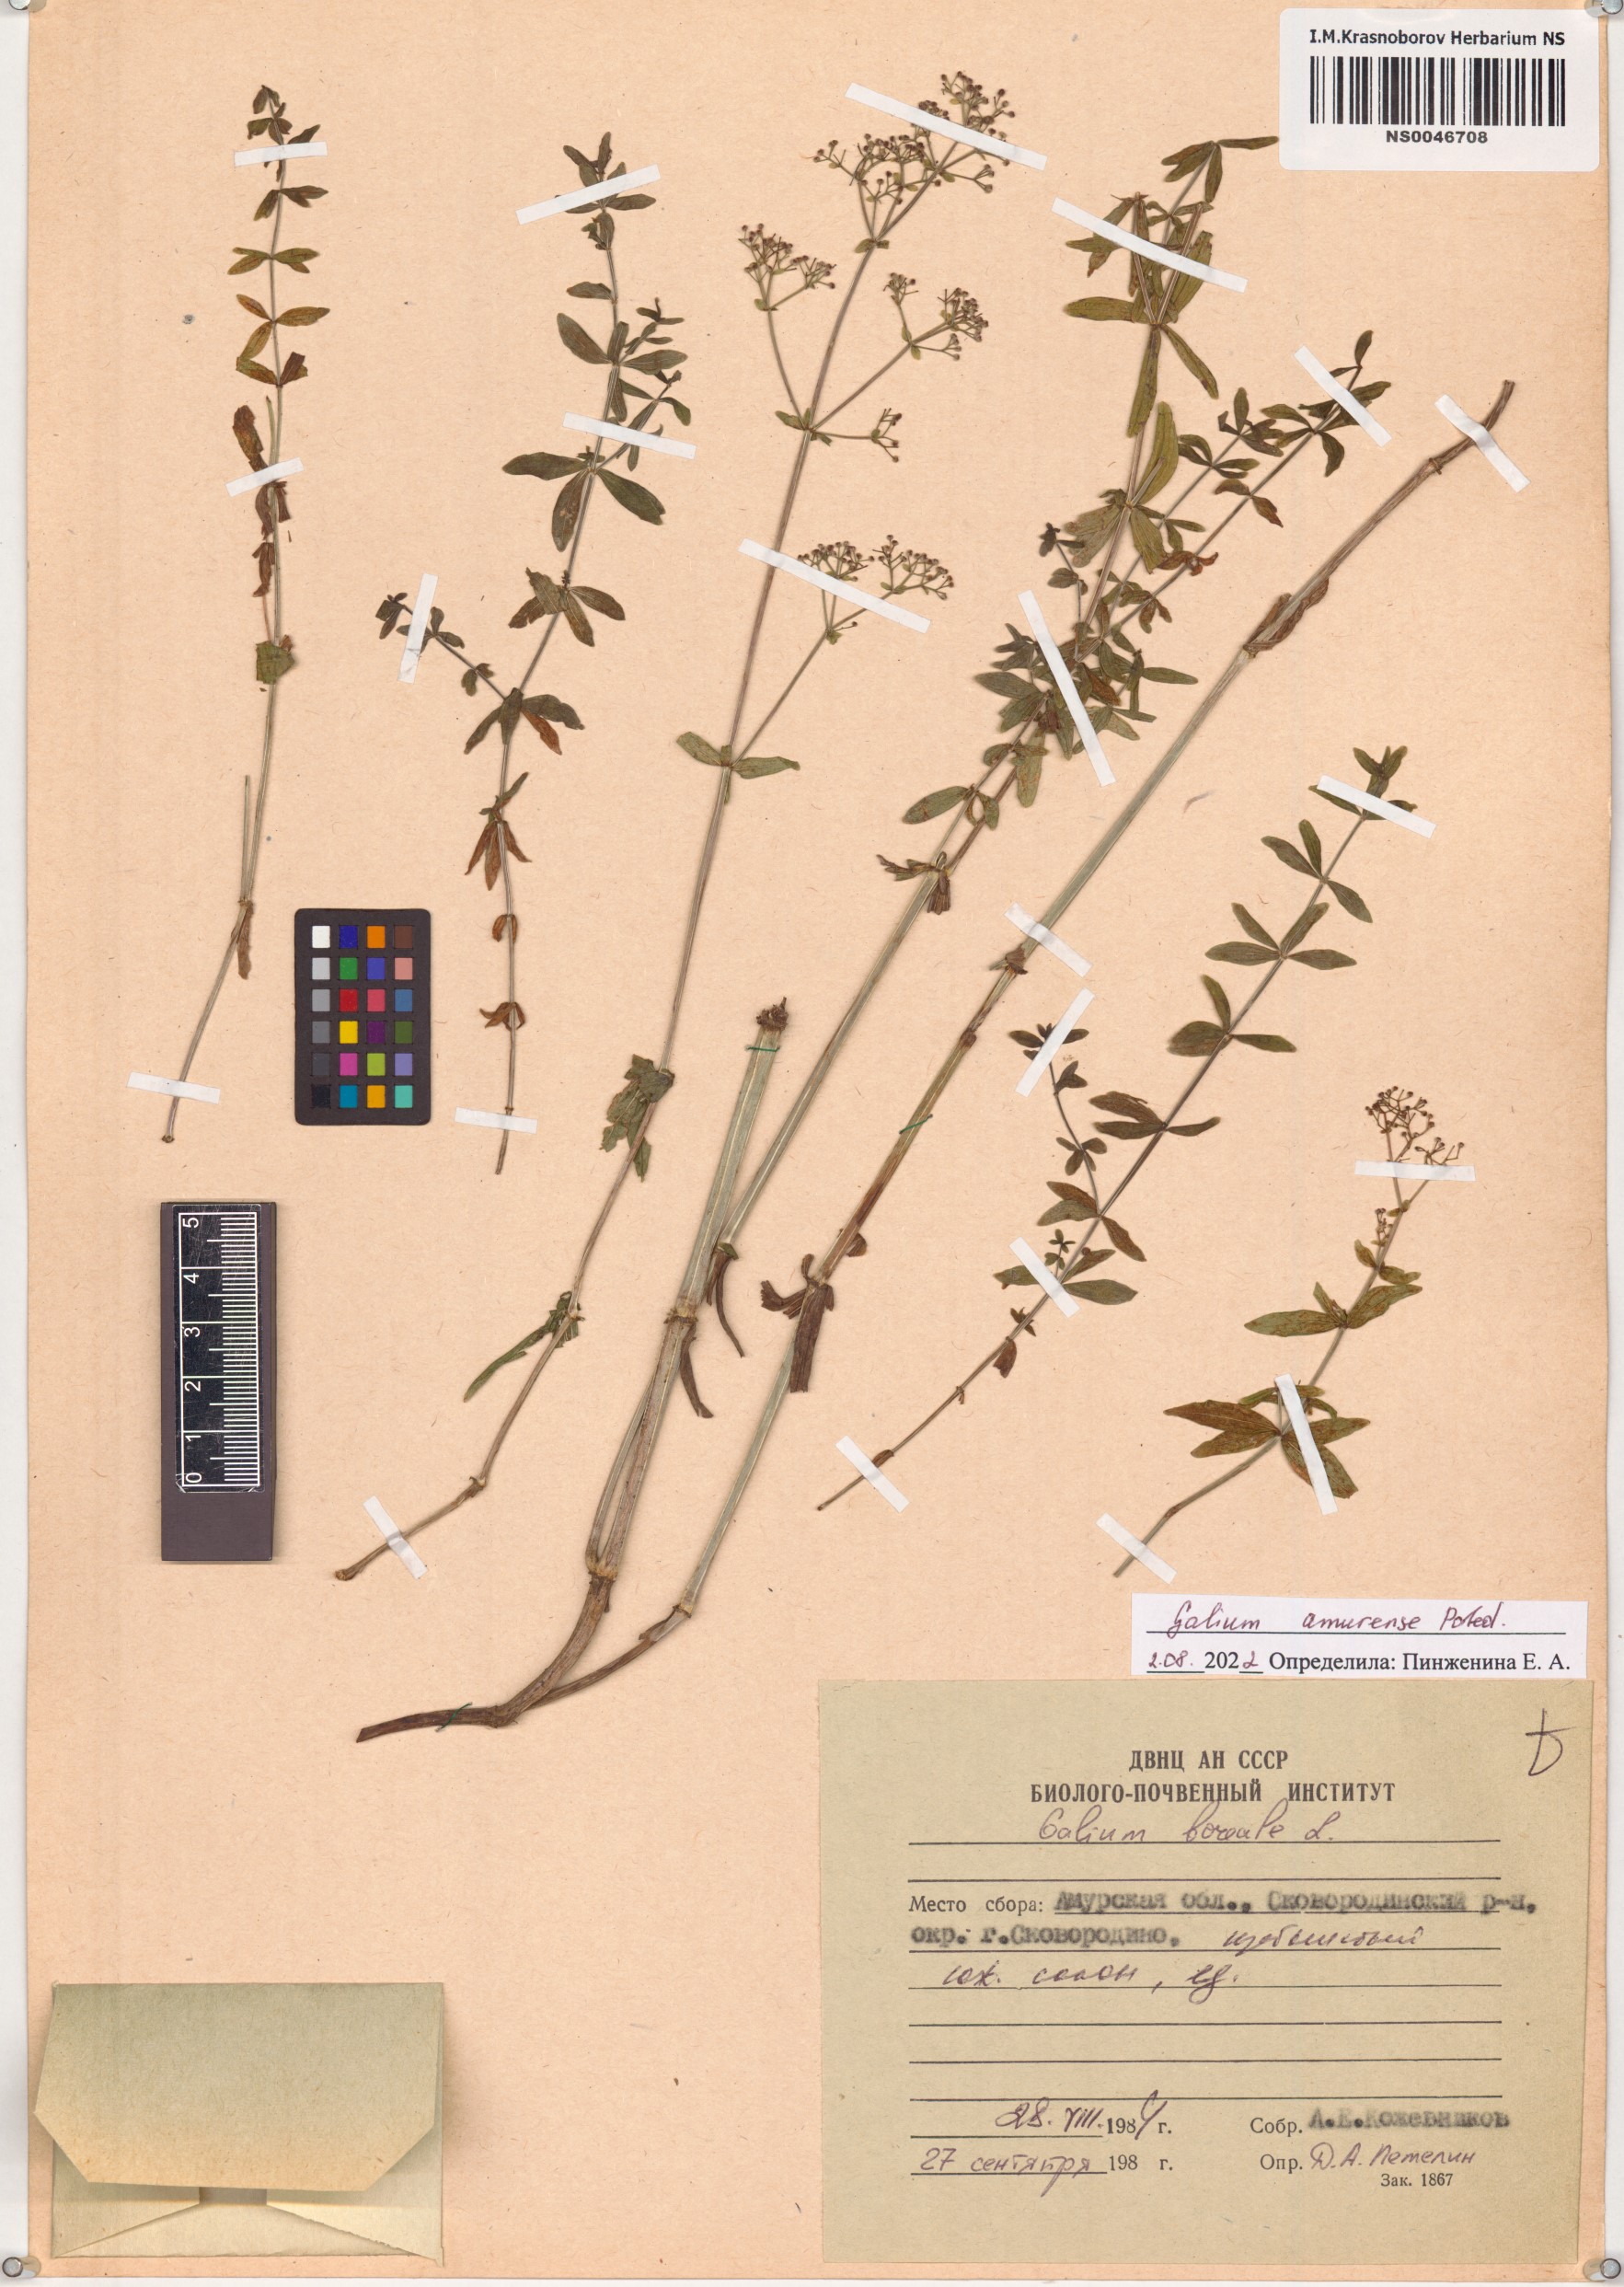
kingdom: Plantae
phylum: Tracheophyta
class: Magnoliopsida
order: Gentianales
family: Rubiaceae
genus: Galium
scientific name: Galium amurense
